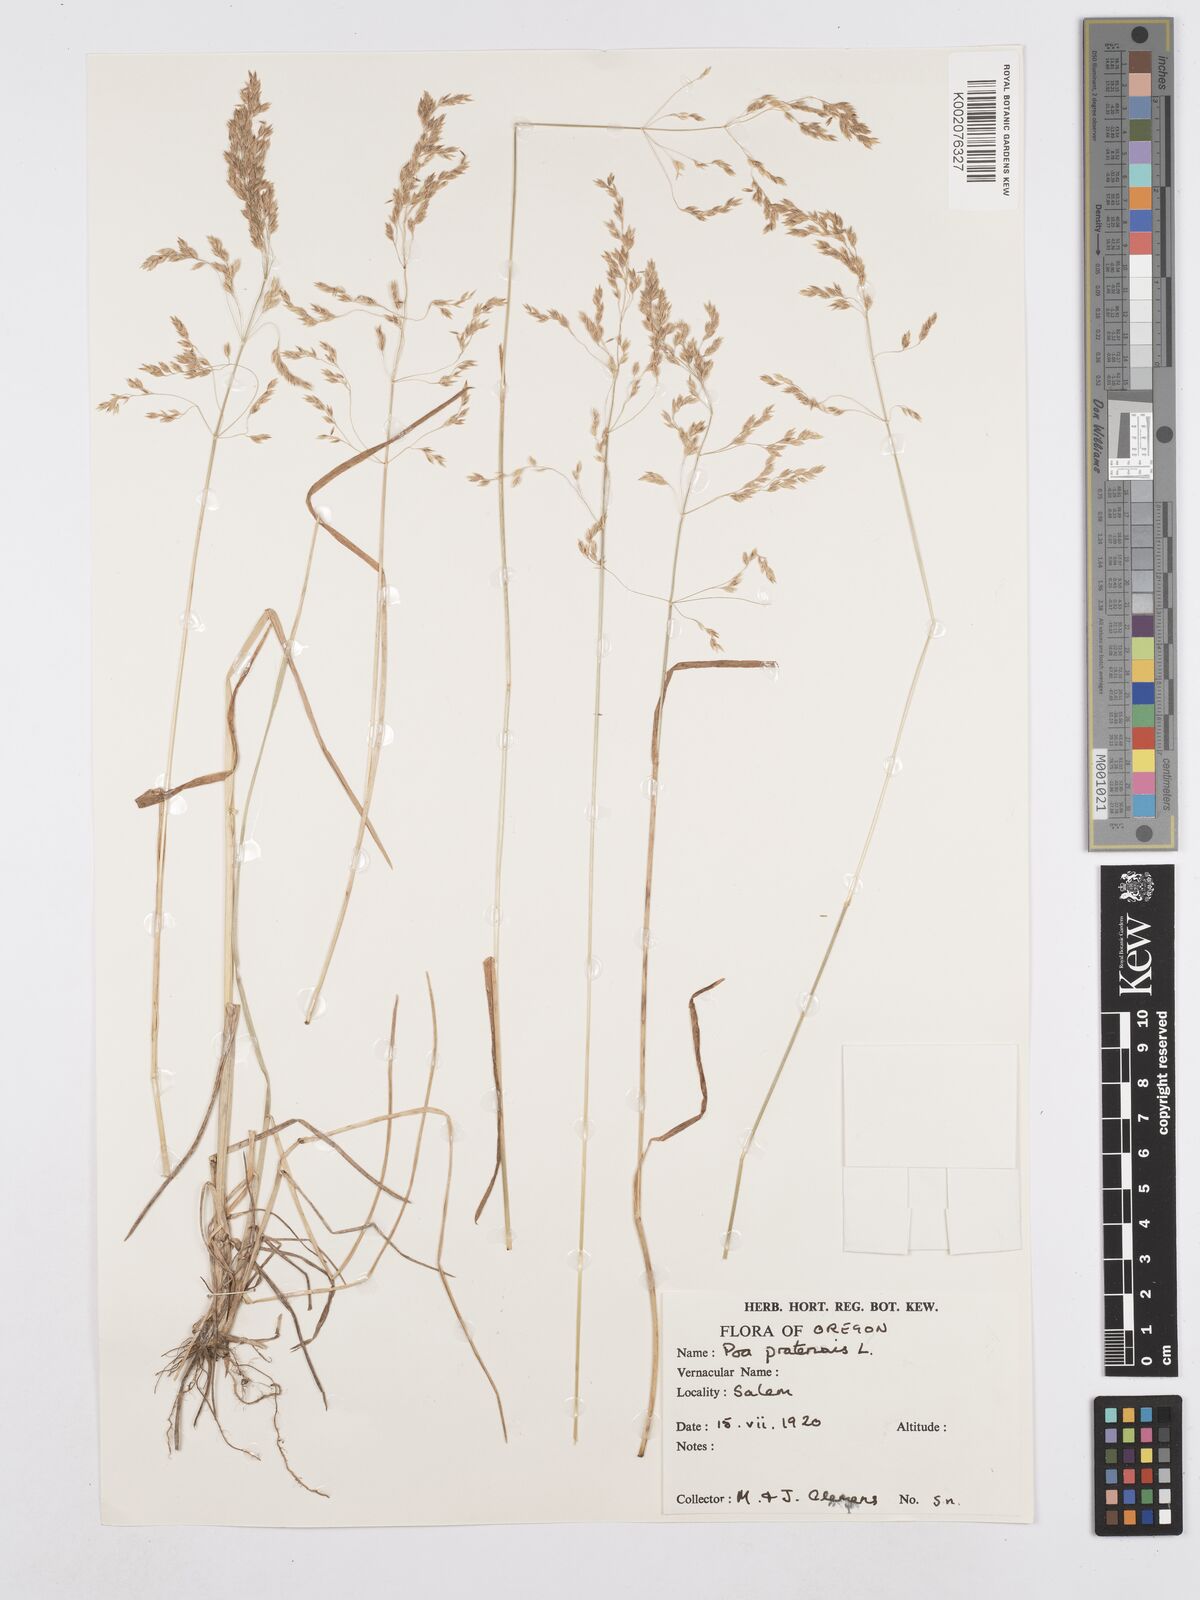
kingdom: Plantae
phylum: Tracheophyta
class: Liliopsida
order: Poales
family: Poaceae
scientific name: Poaceae
